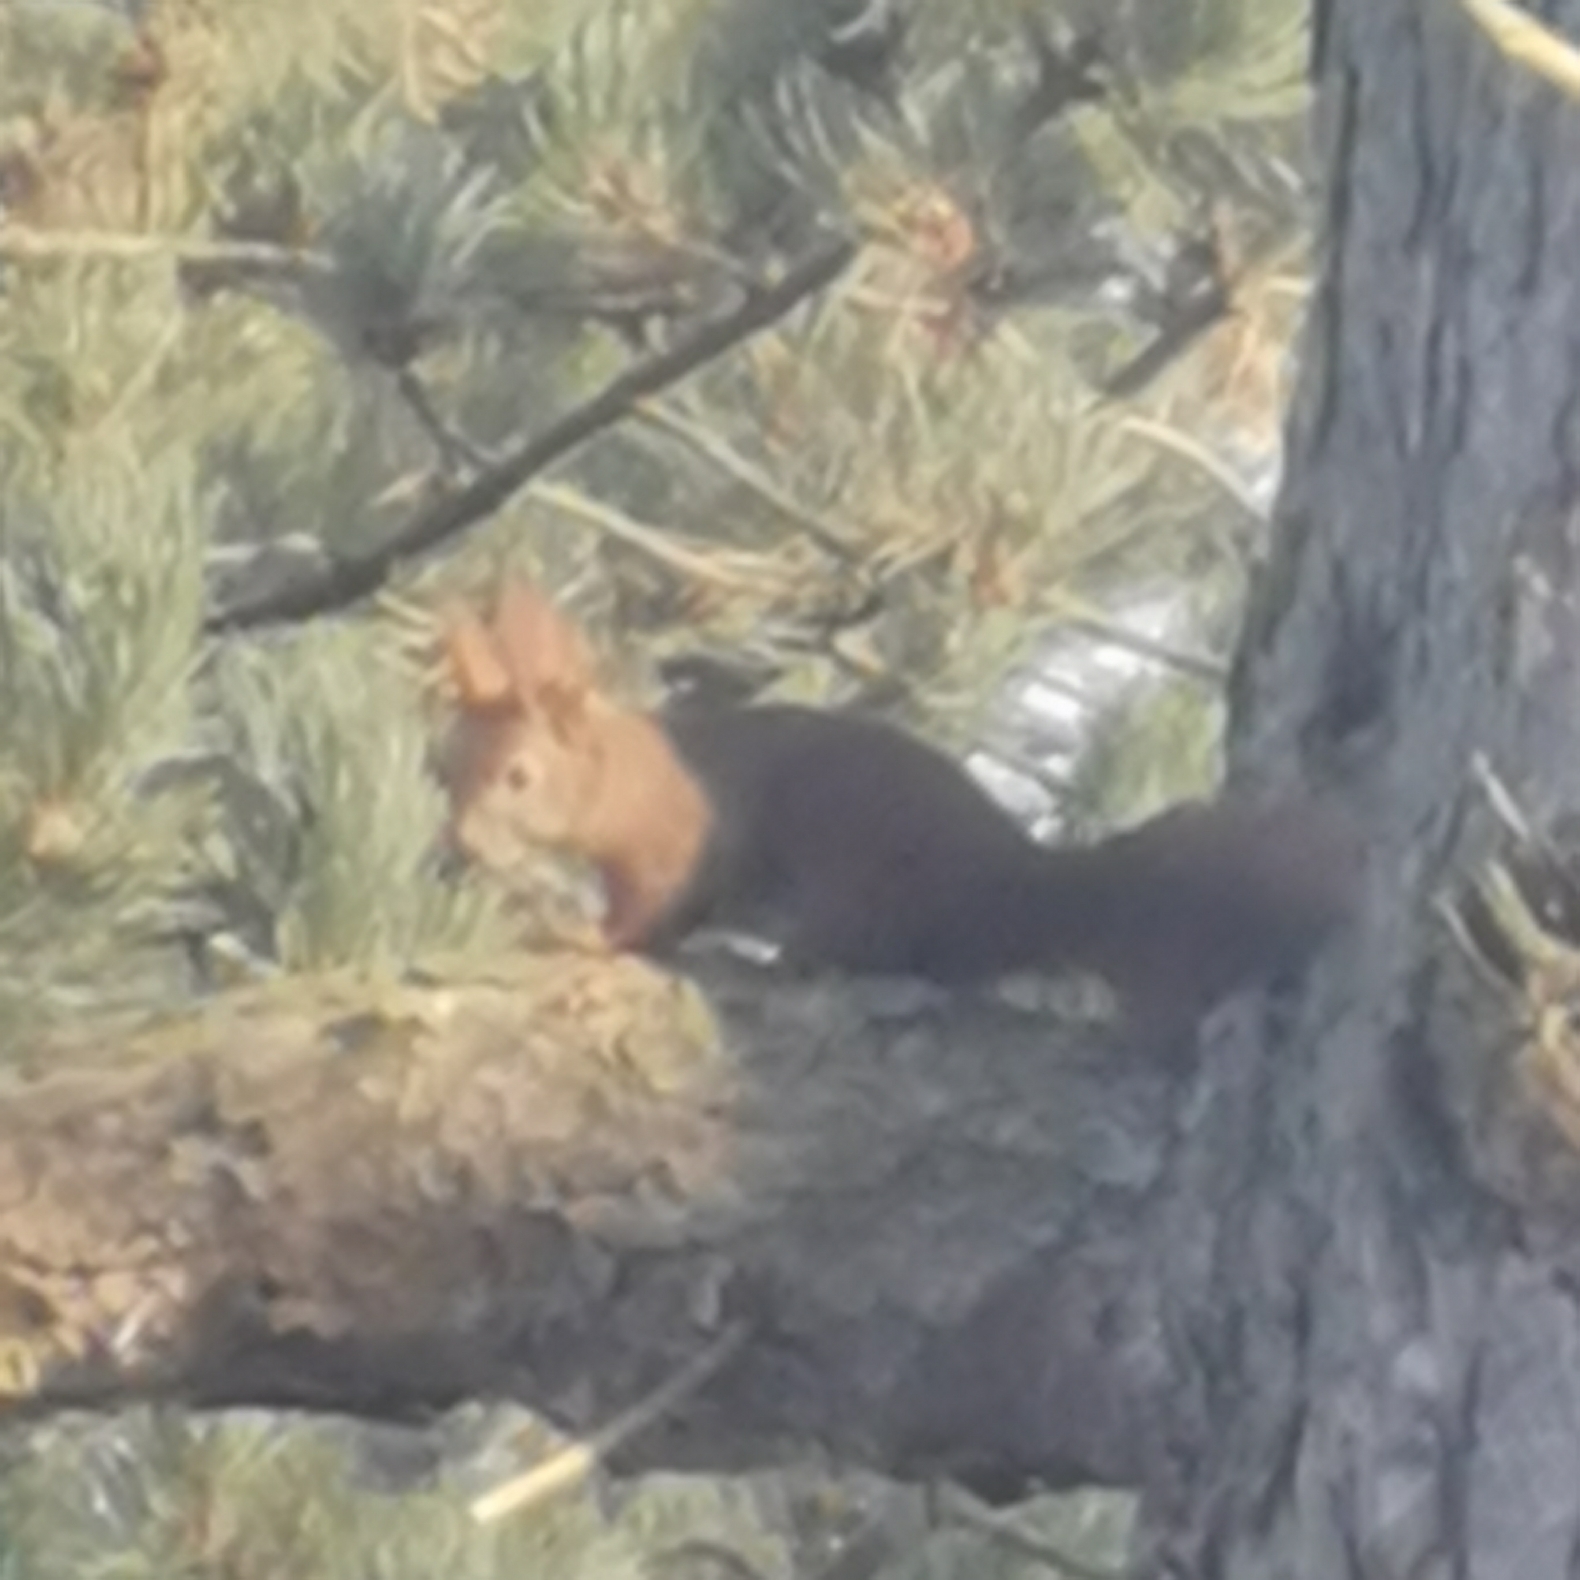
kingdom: Animalia
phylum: Chordata
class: Mammalia
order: Rodentia
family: Sciuridae
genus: Sciurus
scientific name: Sciurus vulgaris
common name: Egern
